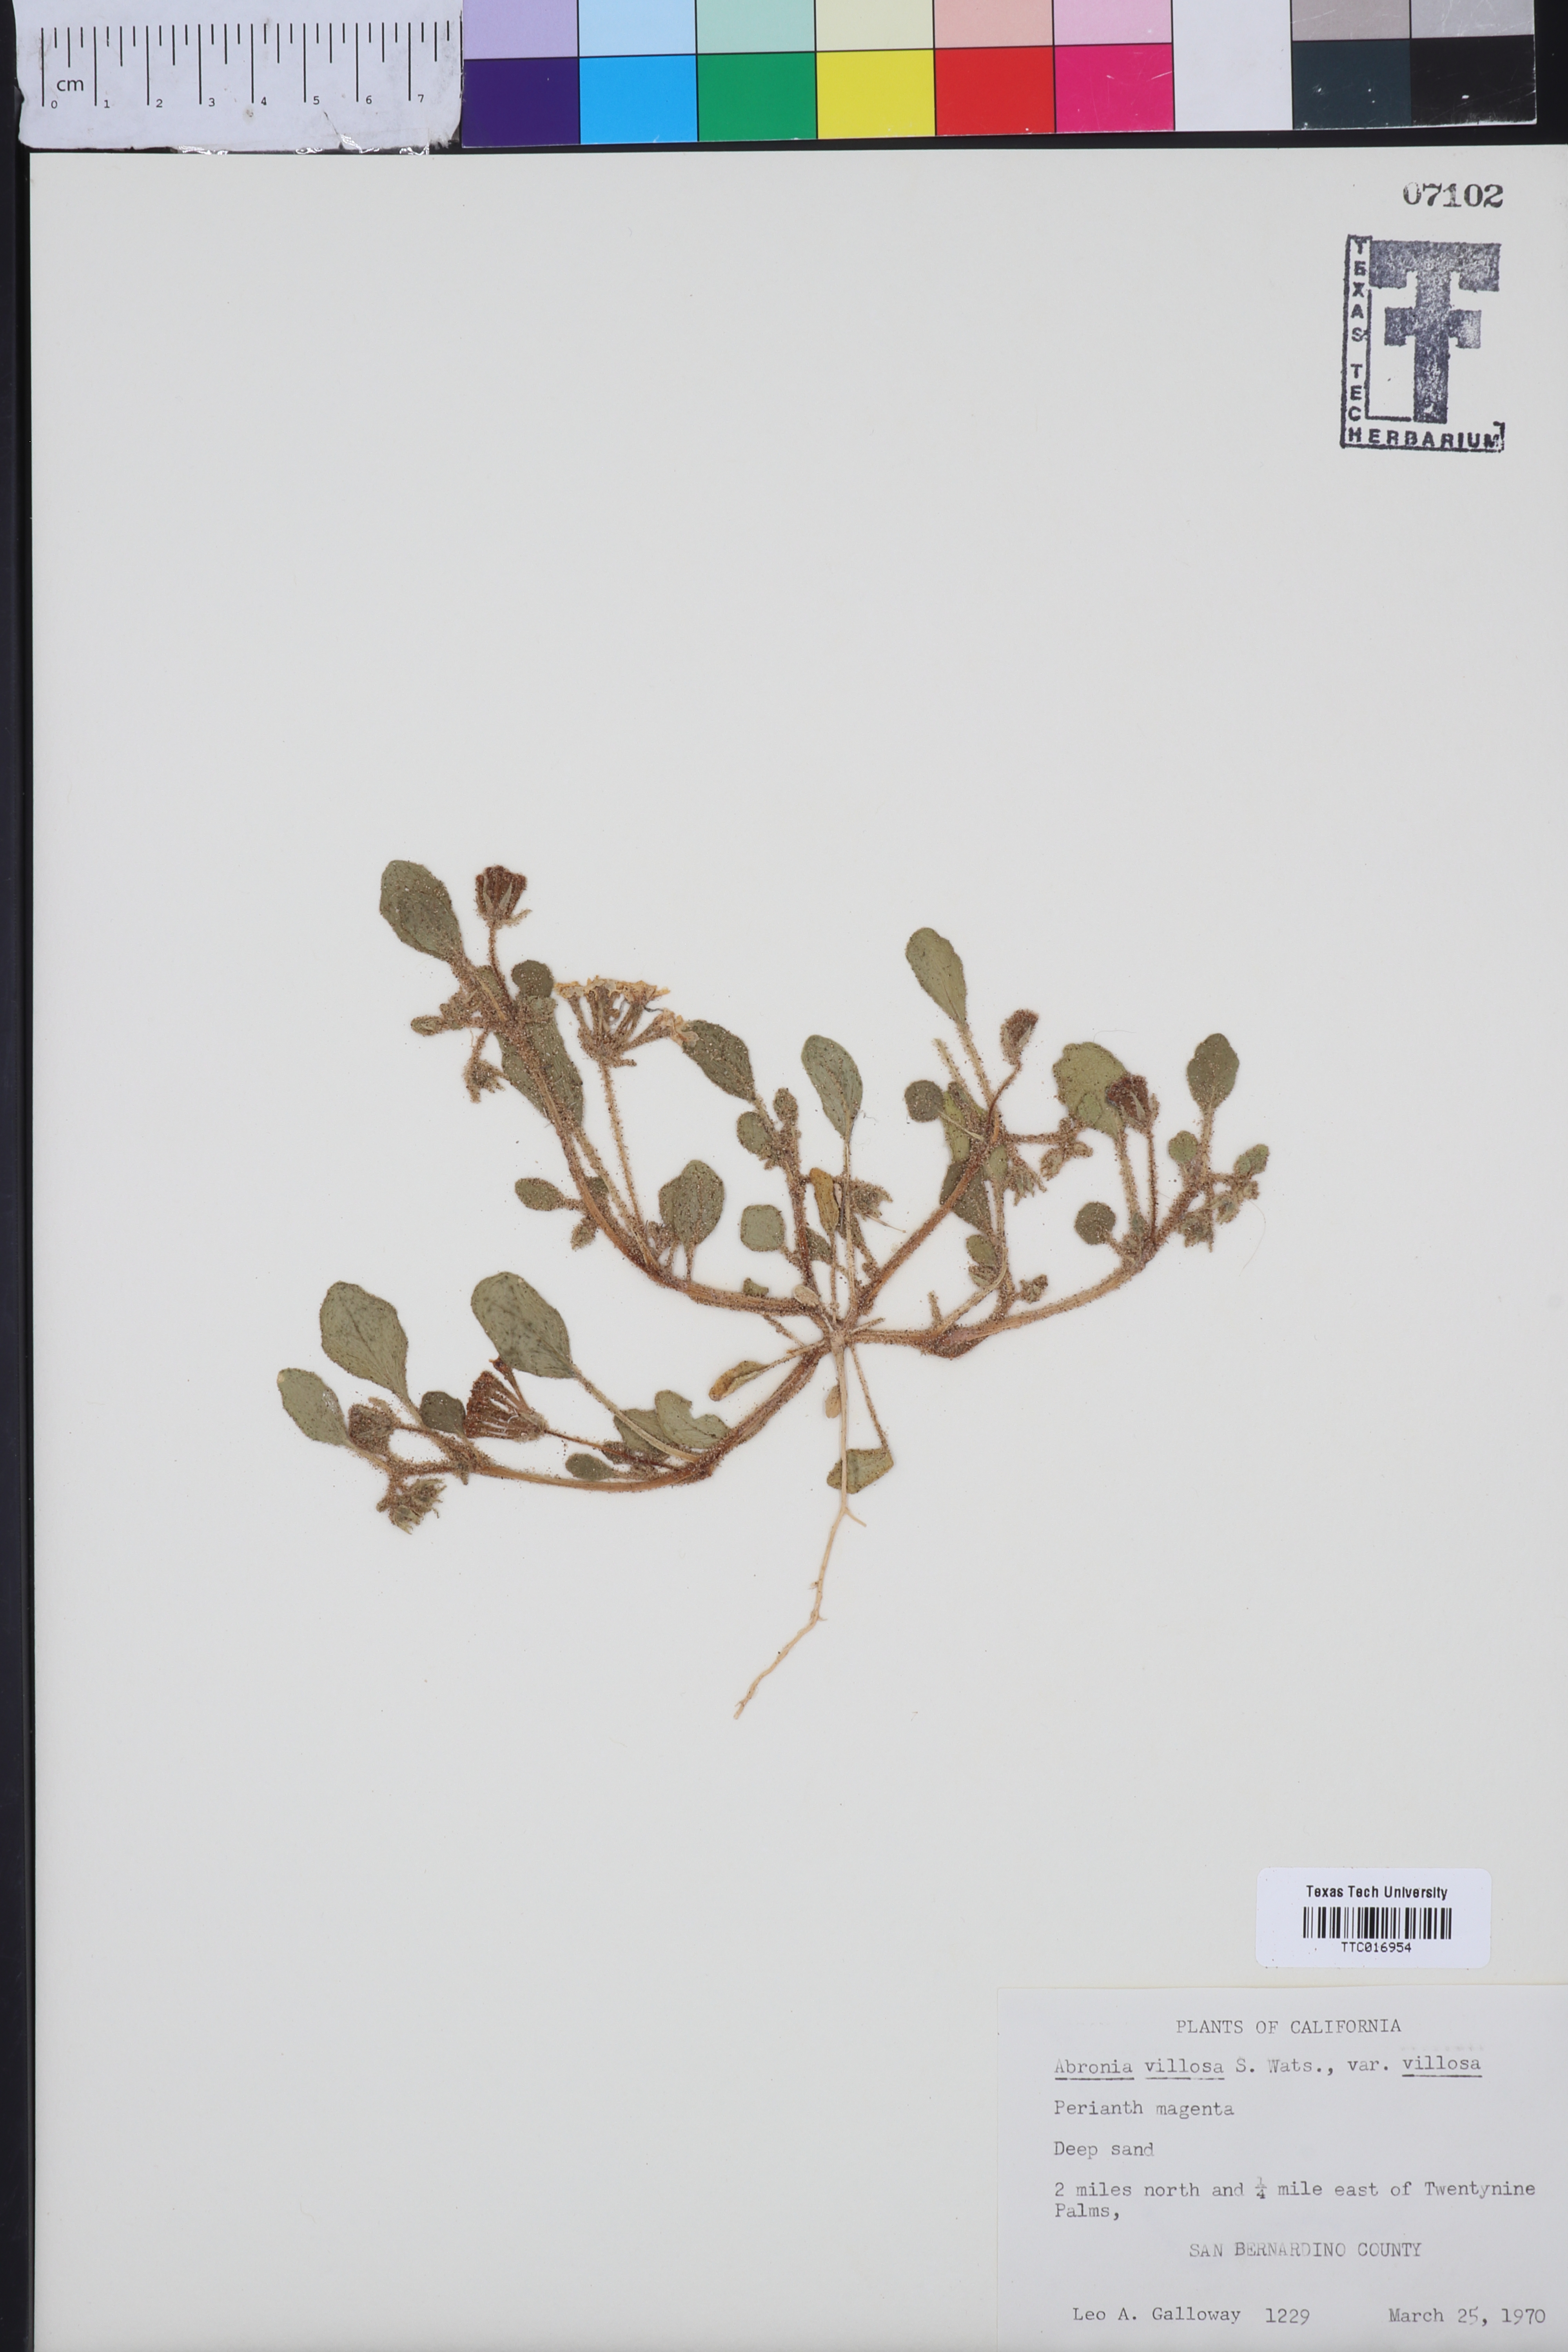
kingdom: Plantae
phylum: Tracheophyta
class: Magnoliopsida
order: Caryophyllales
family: Nyctaginaceae
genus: Abronia
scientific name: Abronia villosa
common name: Desert sand-verbena
